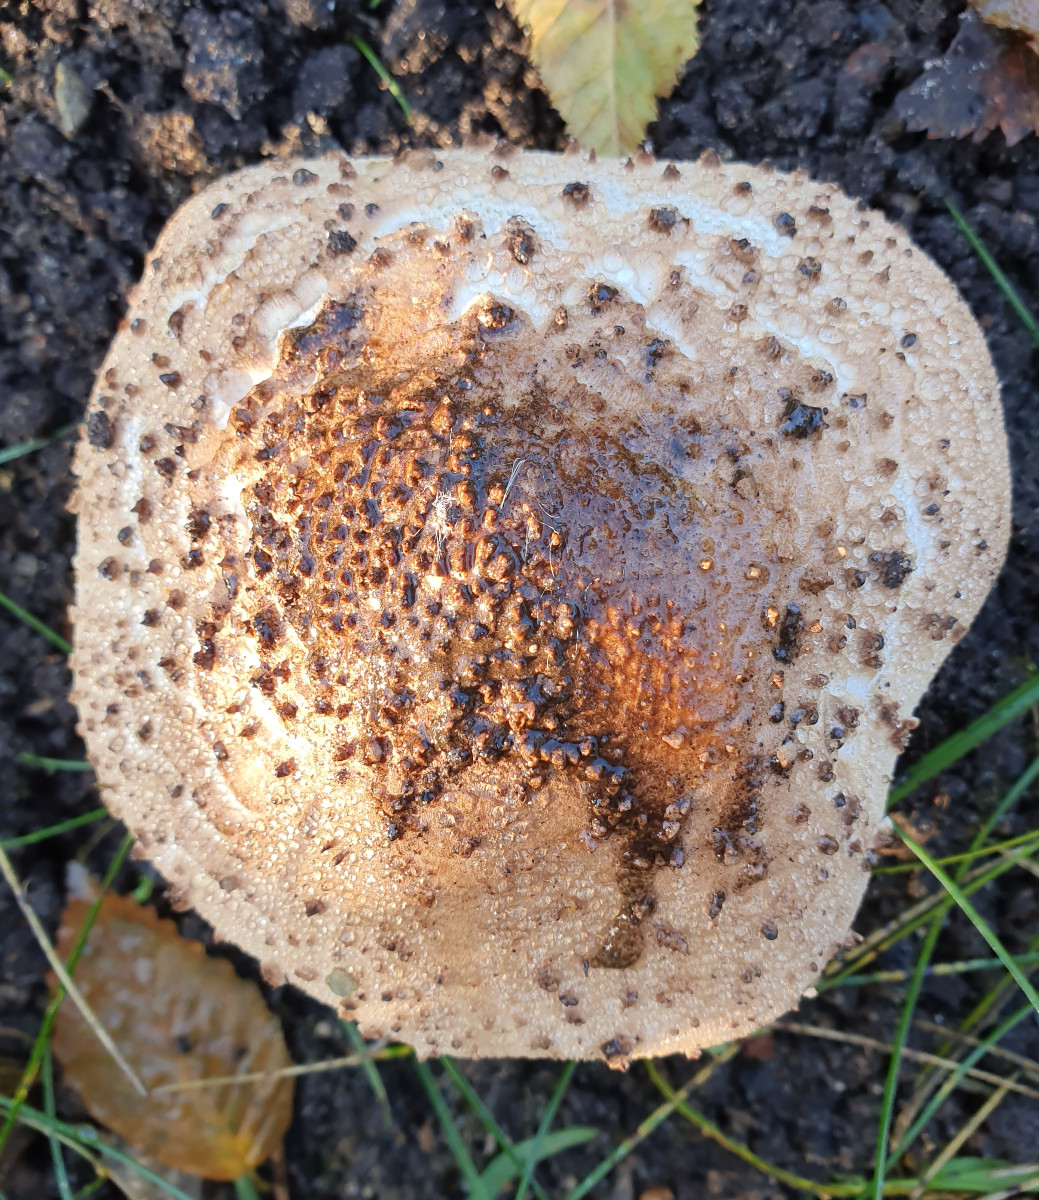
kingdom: Fungi
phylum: Basidiomycota
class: Agaricomycetes
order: Agaricales
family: Agaricaceae
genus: Echinoderma
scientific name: Echinoderma asperum
